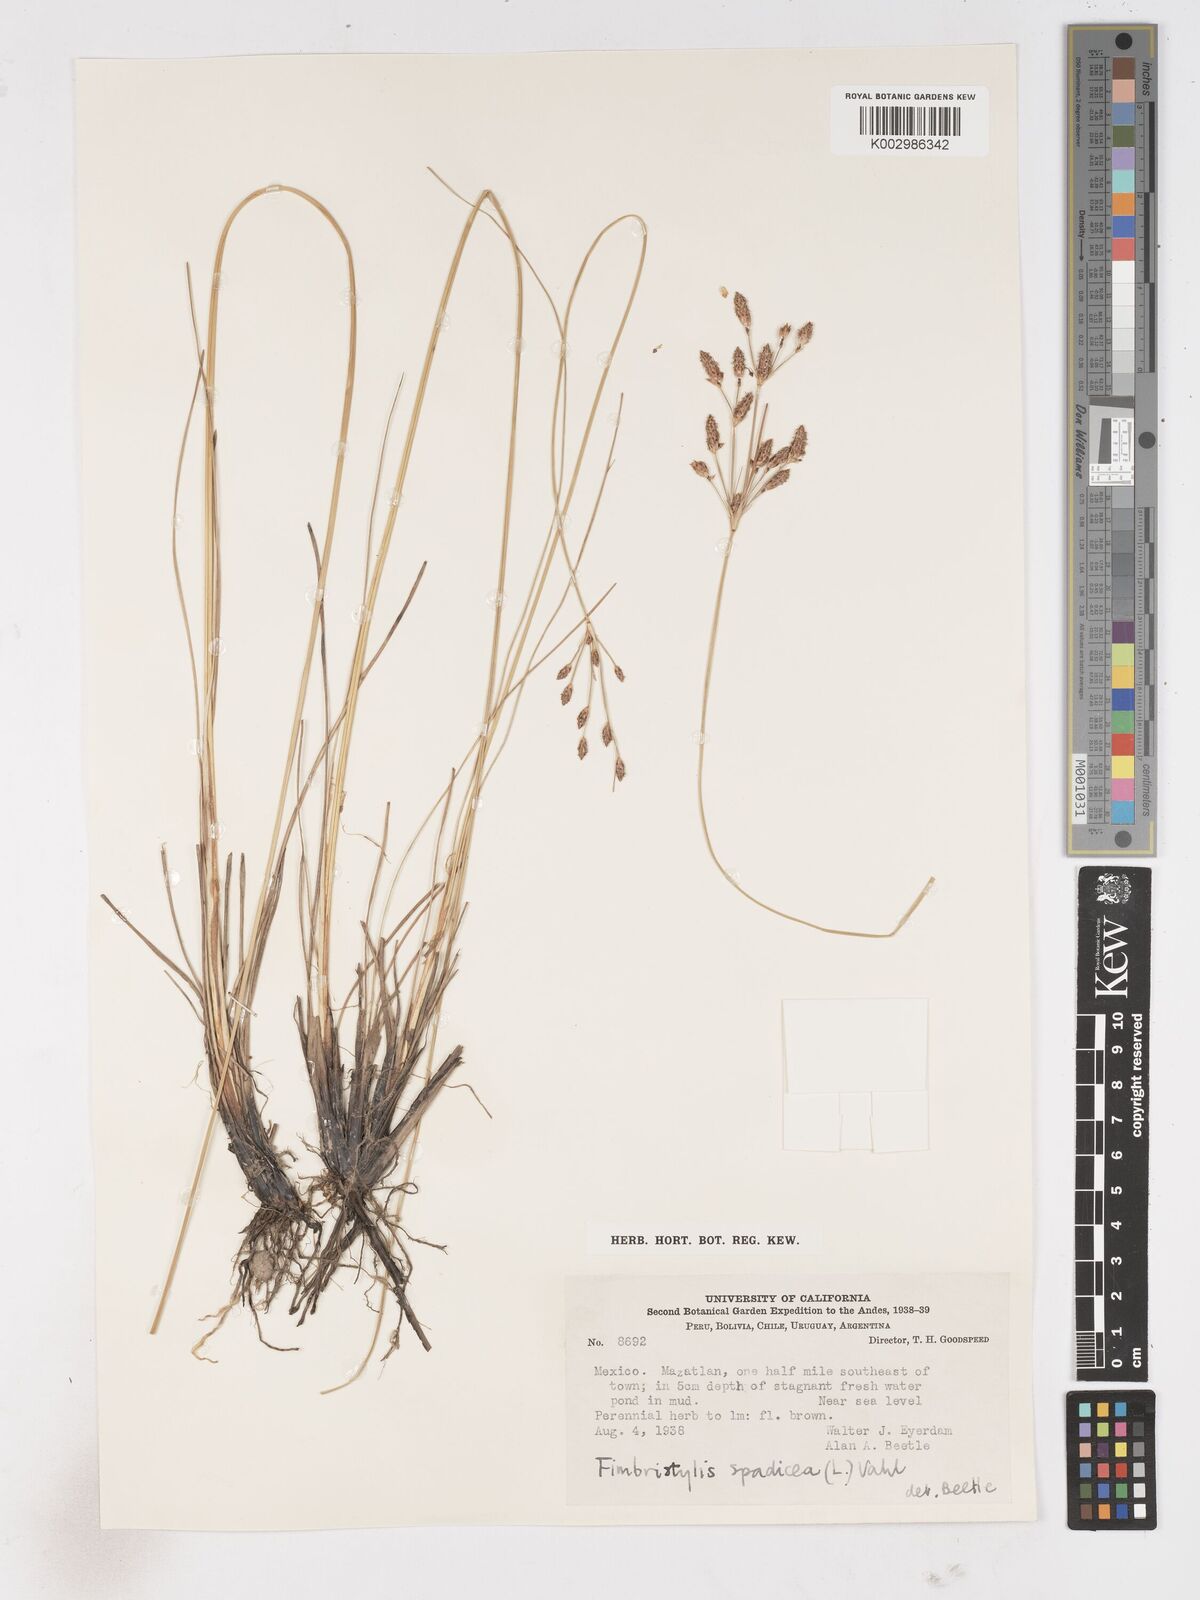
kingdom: Plantae
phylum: Tracheophyta
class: Liliopsida
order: Poales
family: Cyperaceae
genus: Fimbristylis
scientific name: Fimbristylis spadicea
